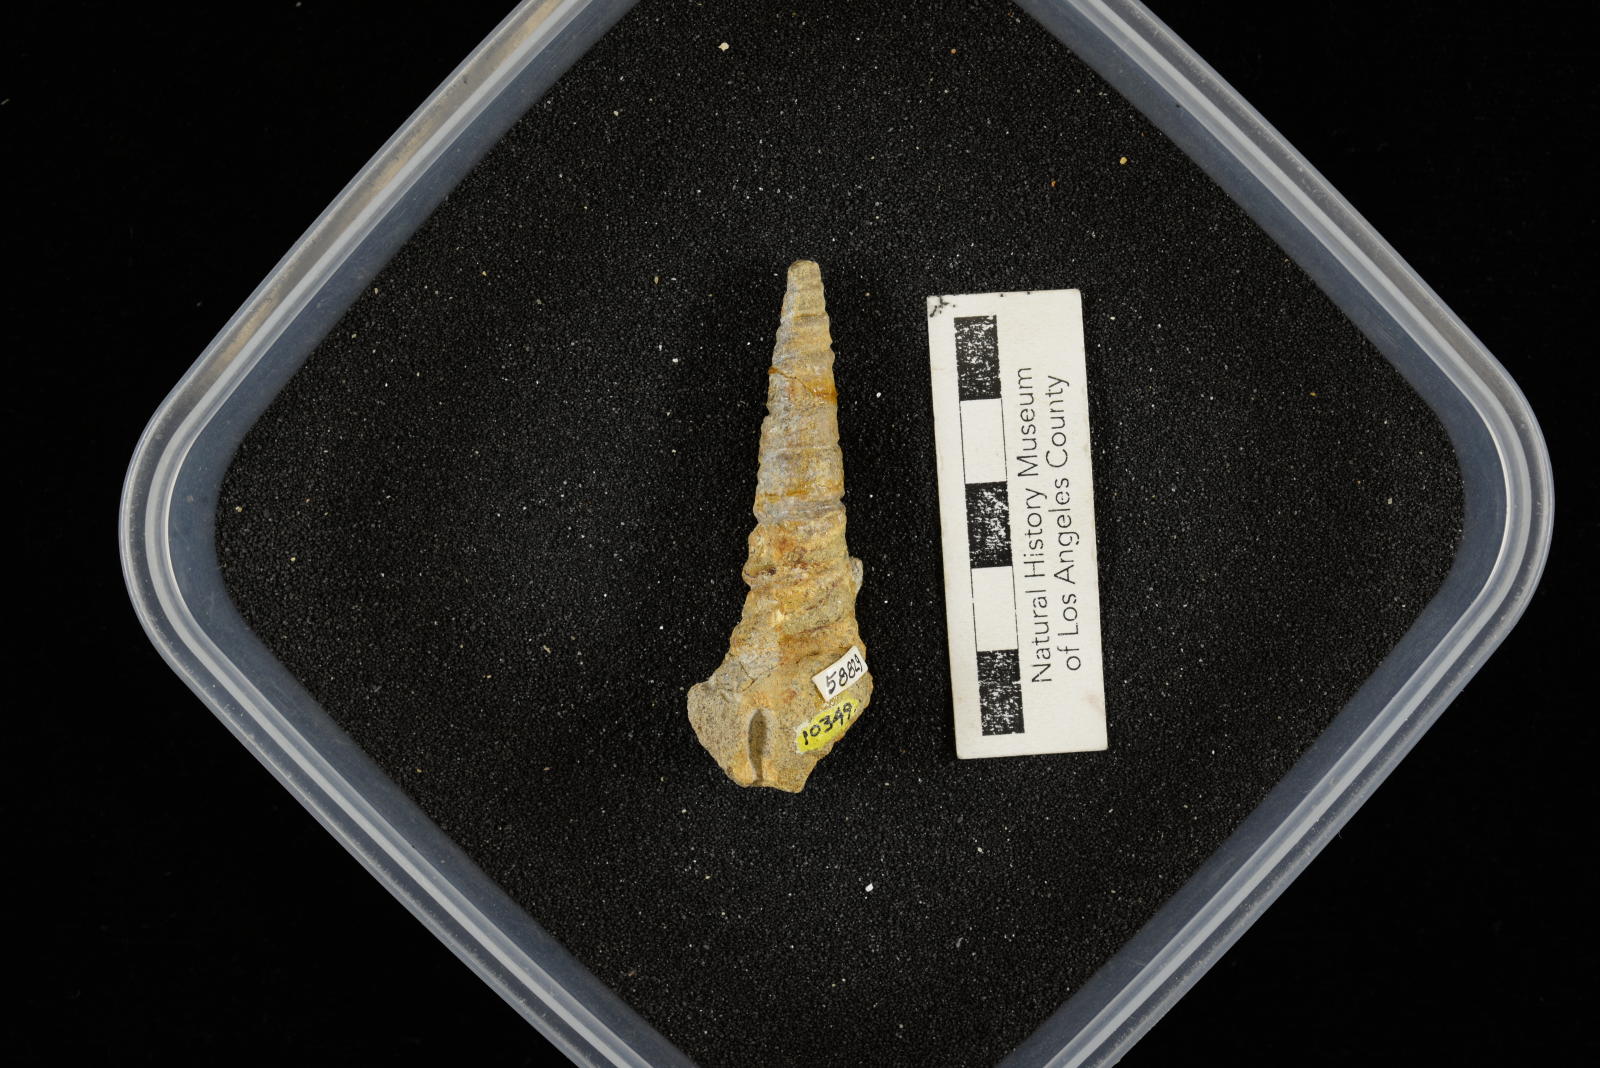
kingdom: Animalia
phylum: Mollusca
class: Gastropoda
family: Turritellidae
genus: Turritella
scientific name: Turritella chaneyi
